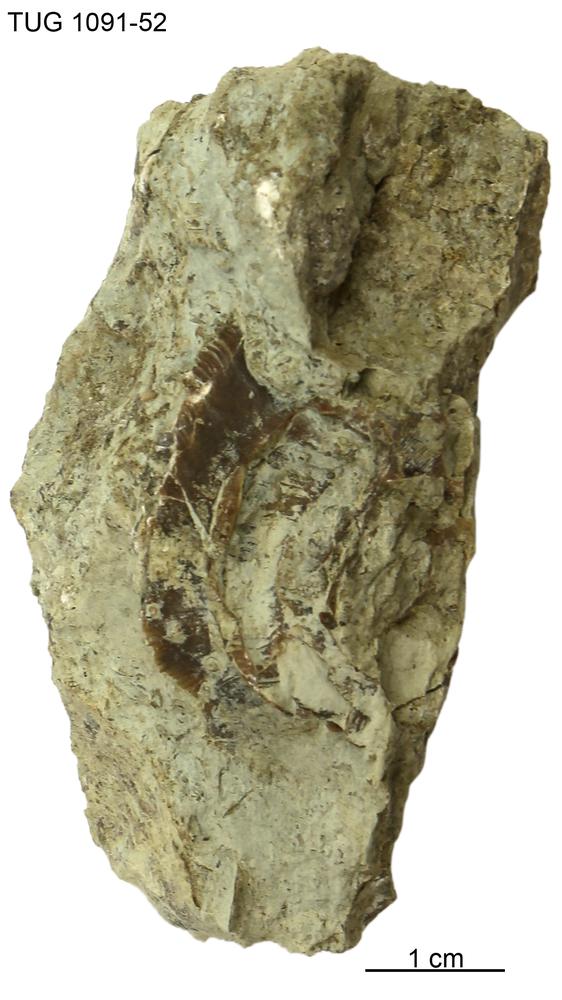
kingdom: Animalia
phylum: Mollusca
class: Gastropoda
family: Euomphalidae
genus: Euomphalopterus
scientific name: Euomphalopterus alatus
